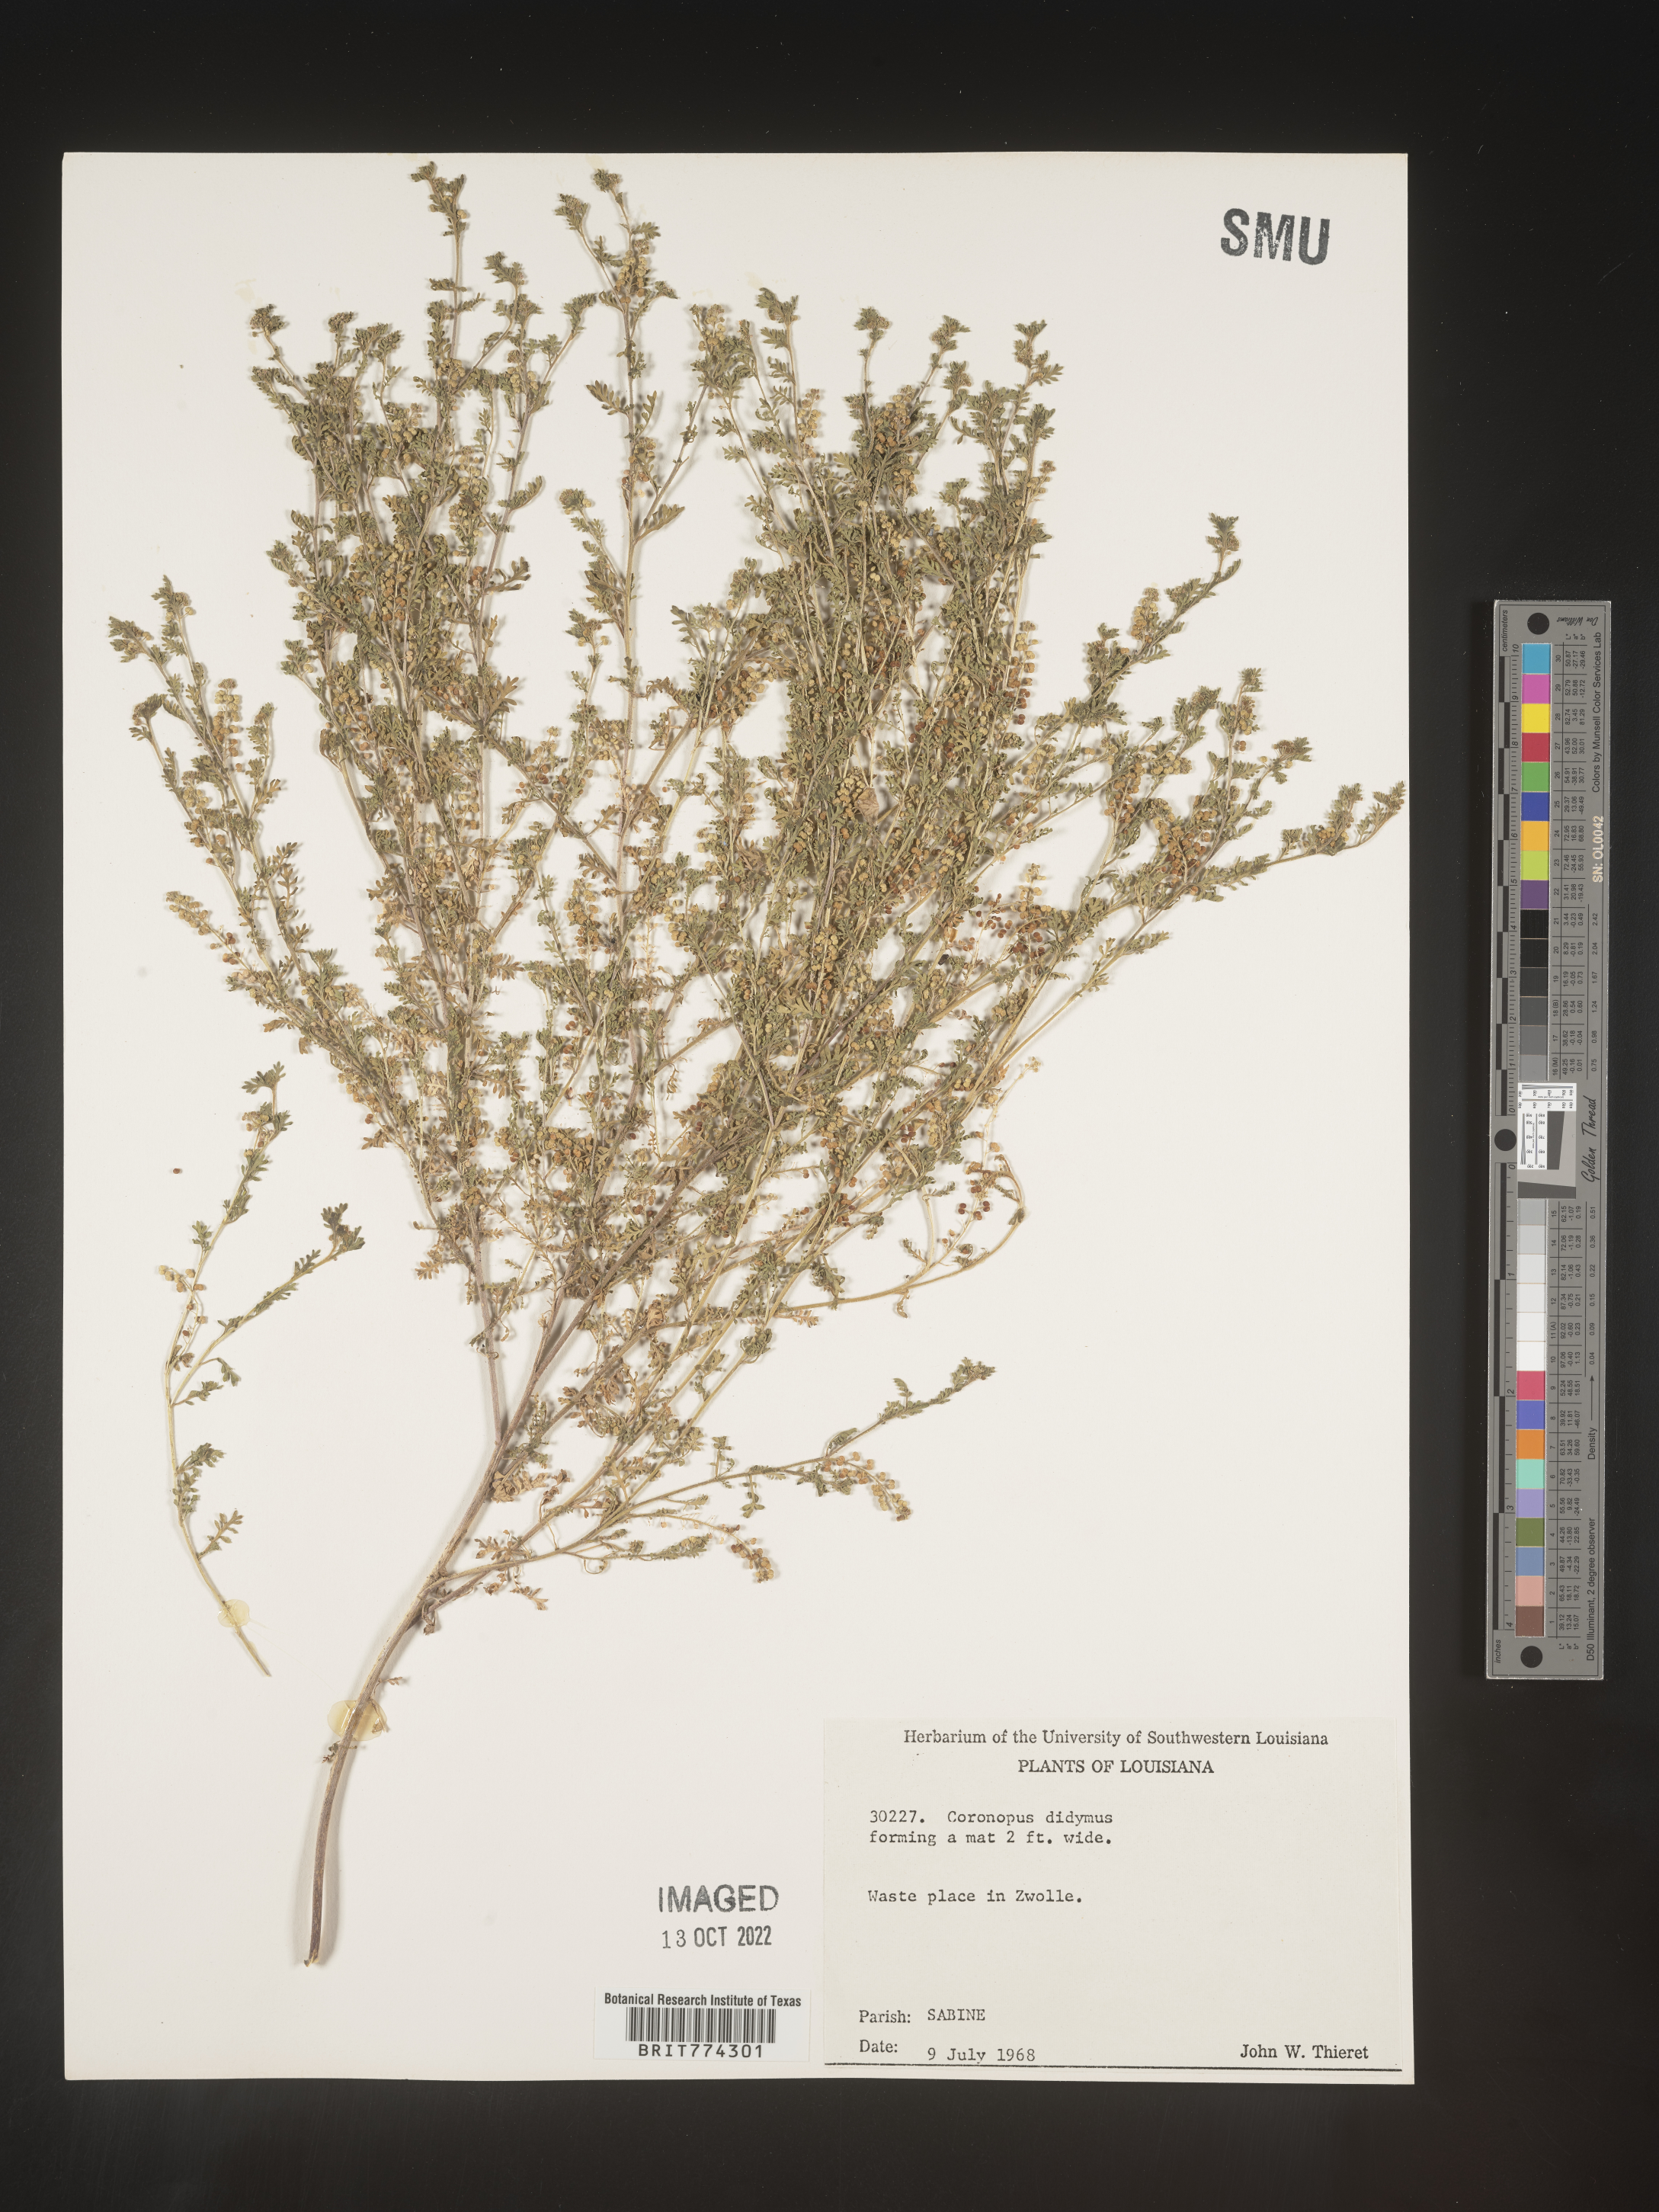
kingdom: Plantae
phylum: Tracheophyta
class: Magnoliopsida
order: Brassicales
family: Brassicaceae
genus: Coronopus
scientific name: Coronopus
